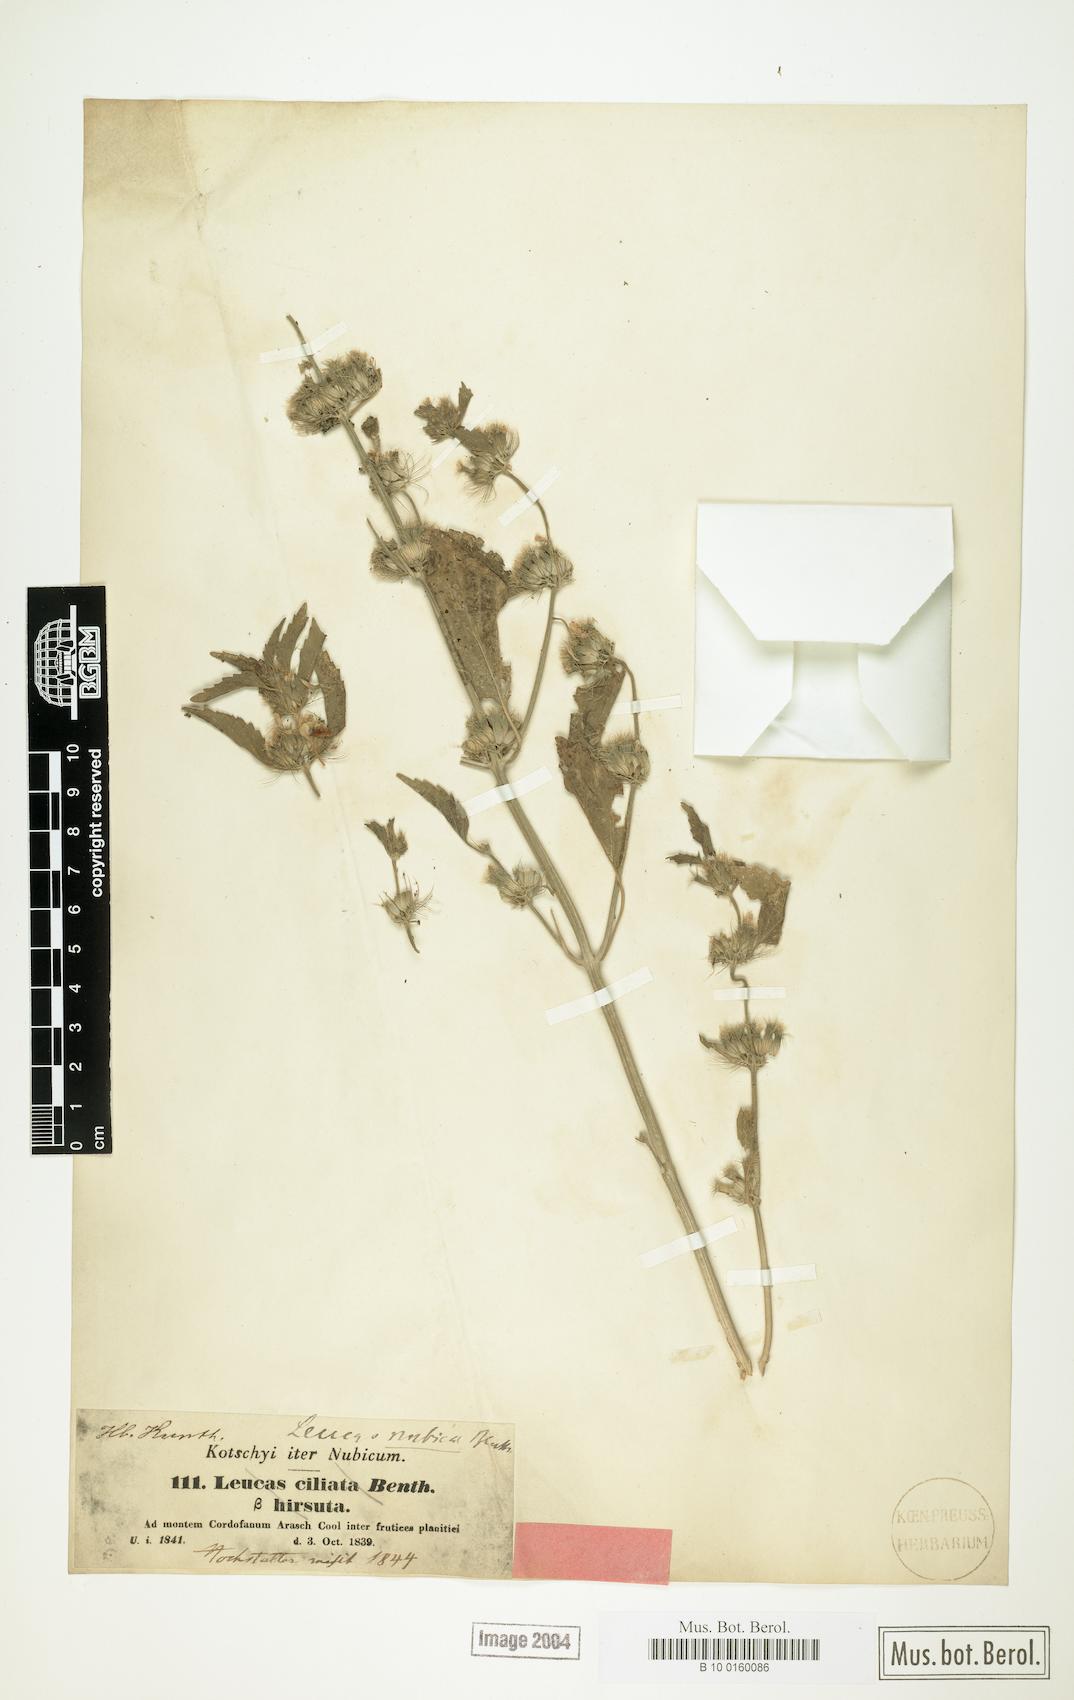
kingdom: Plantae
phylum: Tracheophyta
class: Magnoliopsida
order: Lamiales
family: Lamiaceae
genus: Leucas
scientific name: Leucas nubica
